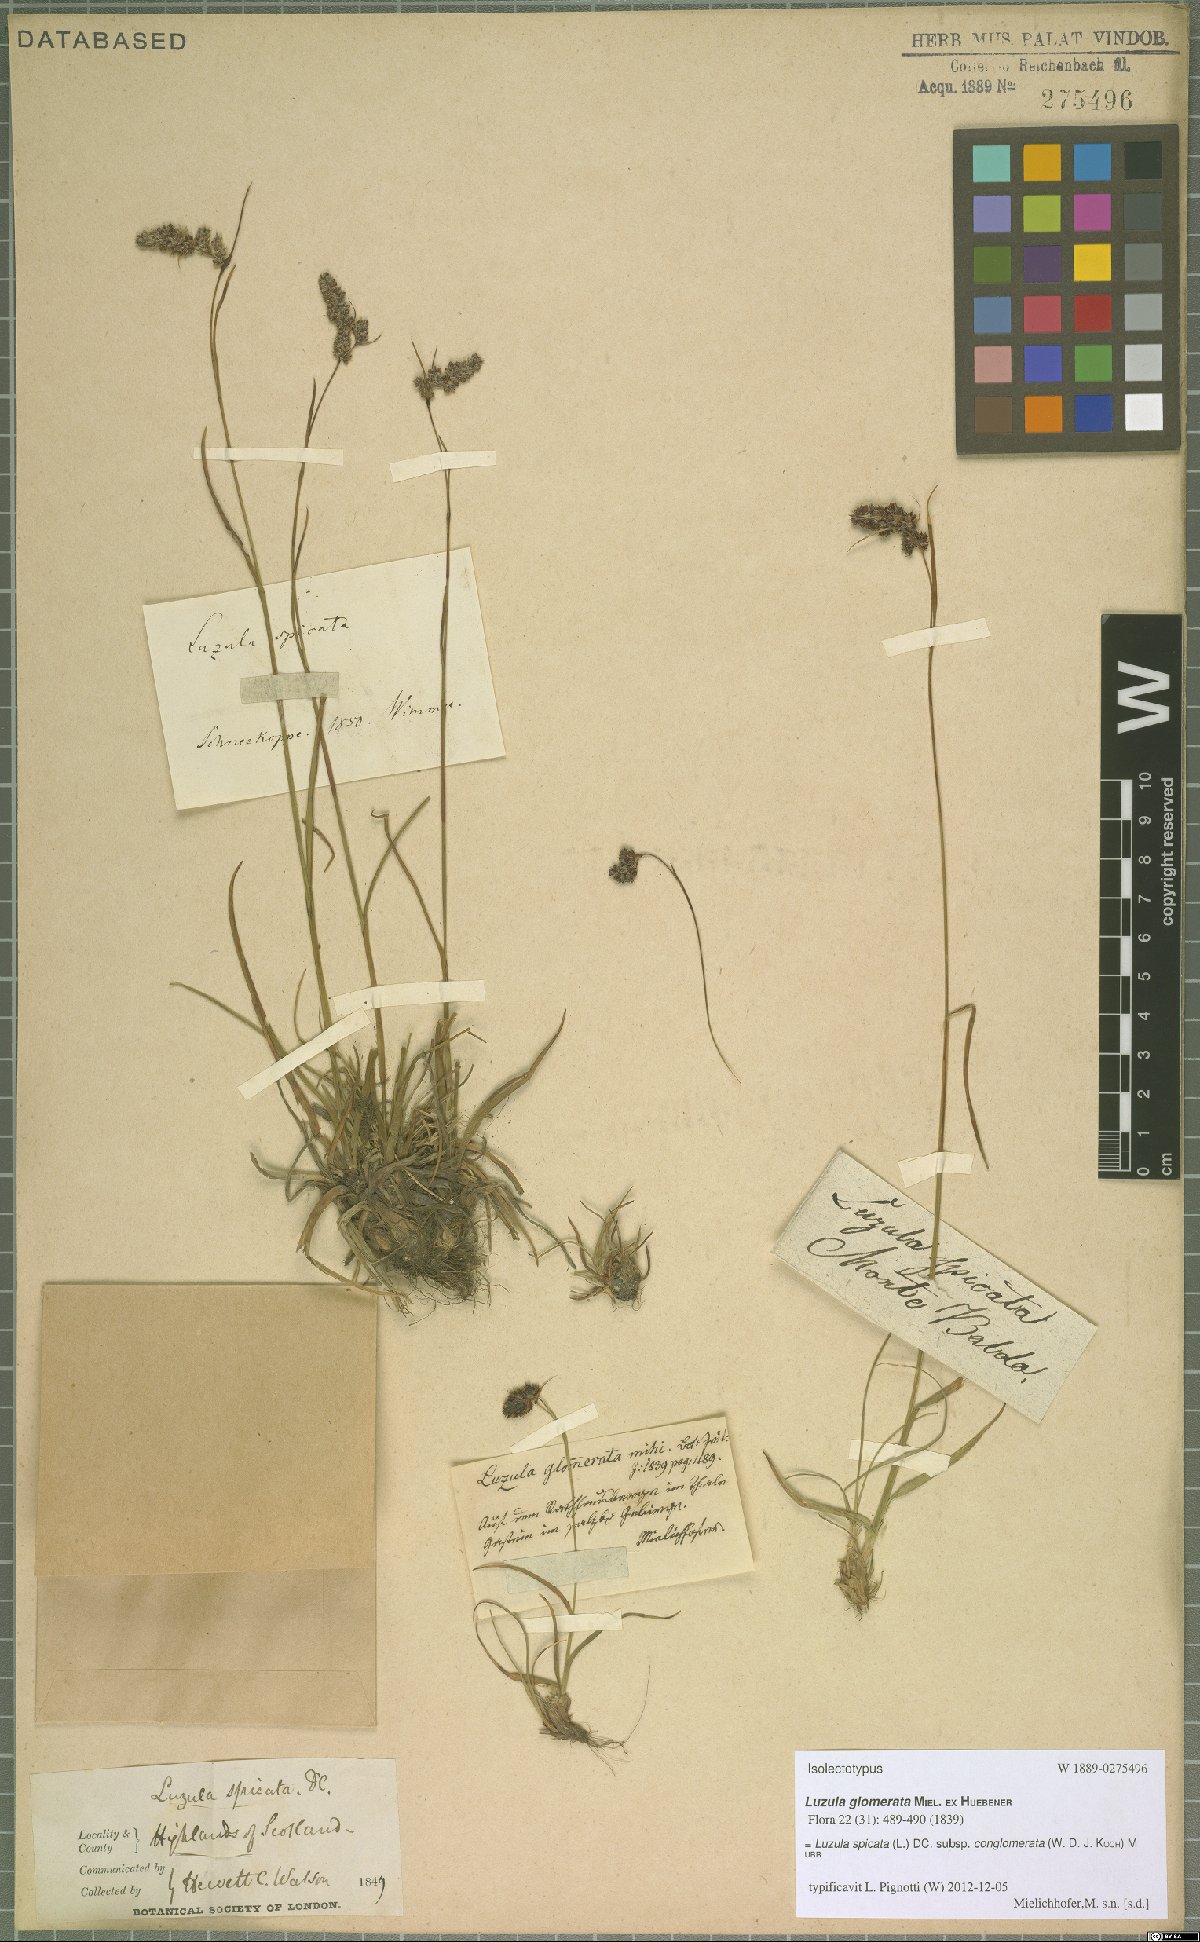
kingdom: Plantae
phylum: Tracheophyta
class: Liliopsida
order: Poales
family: Juncaceae
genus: Luzula
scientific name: Luzula spicata
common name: Spiked wood-rush
